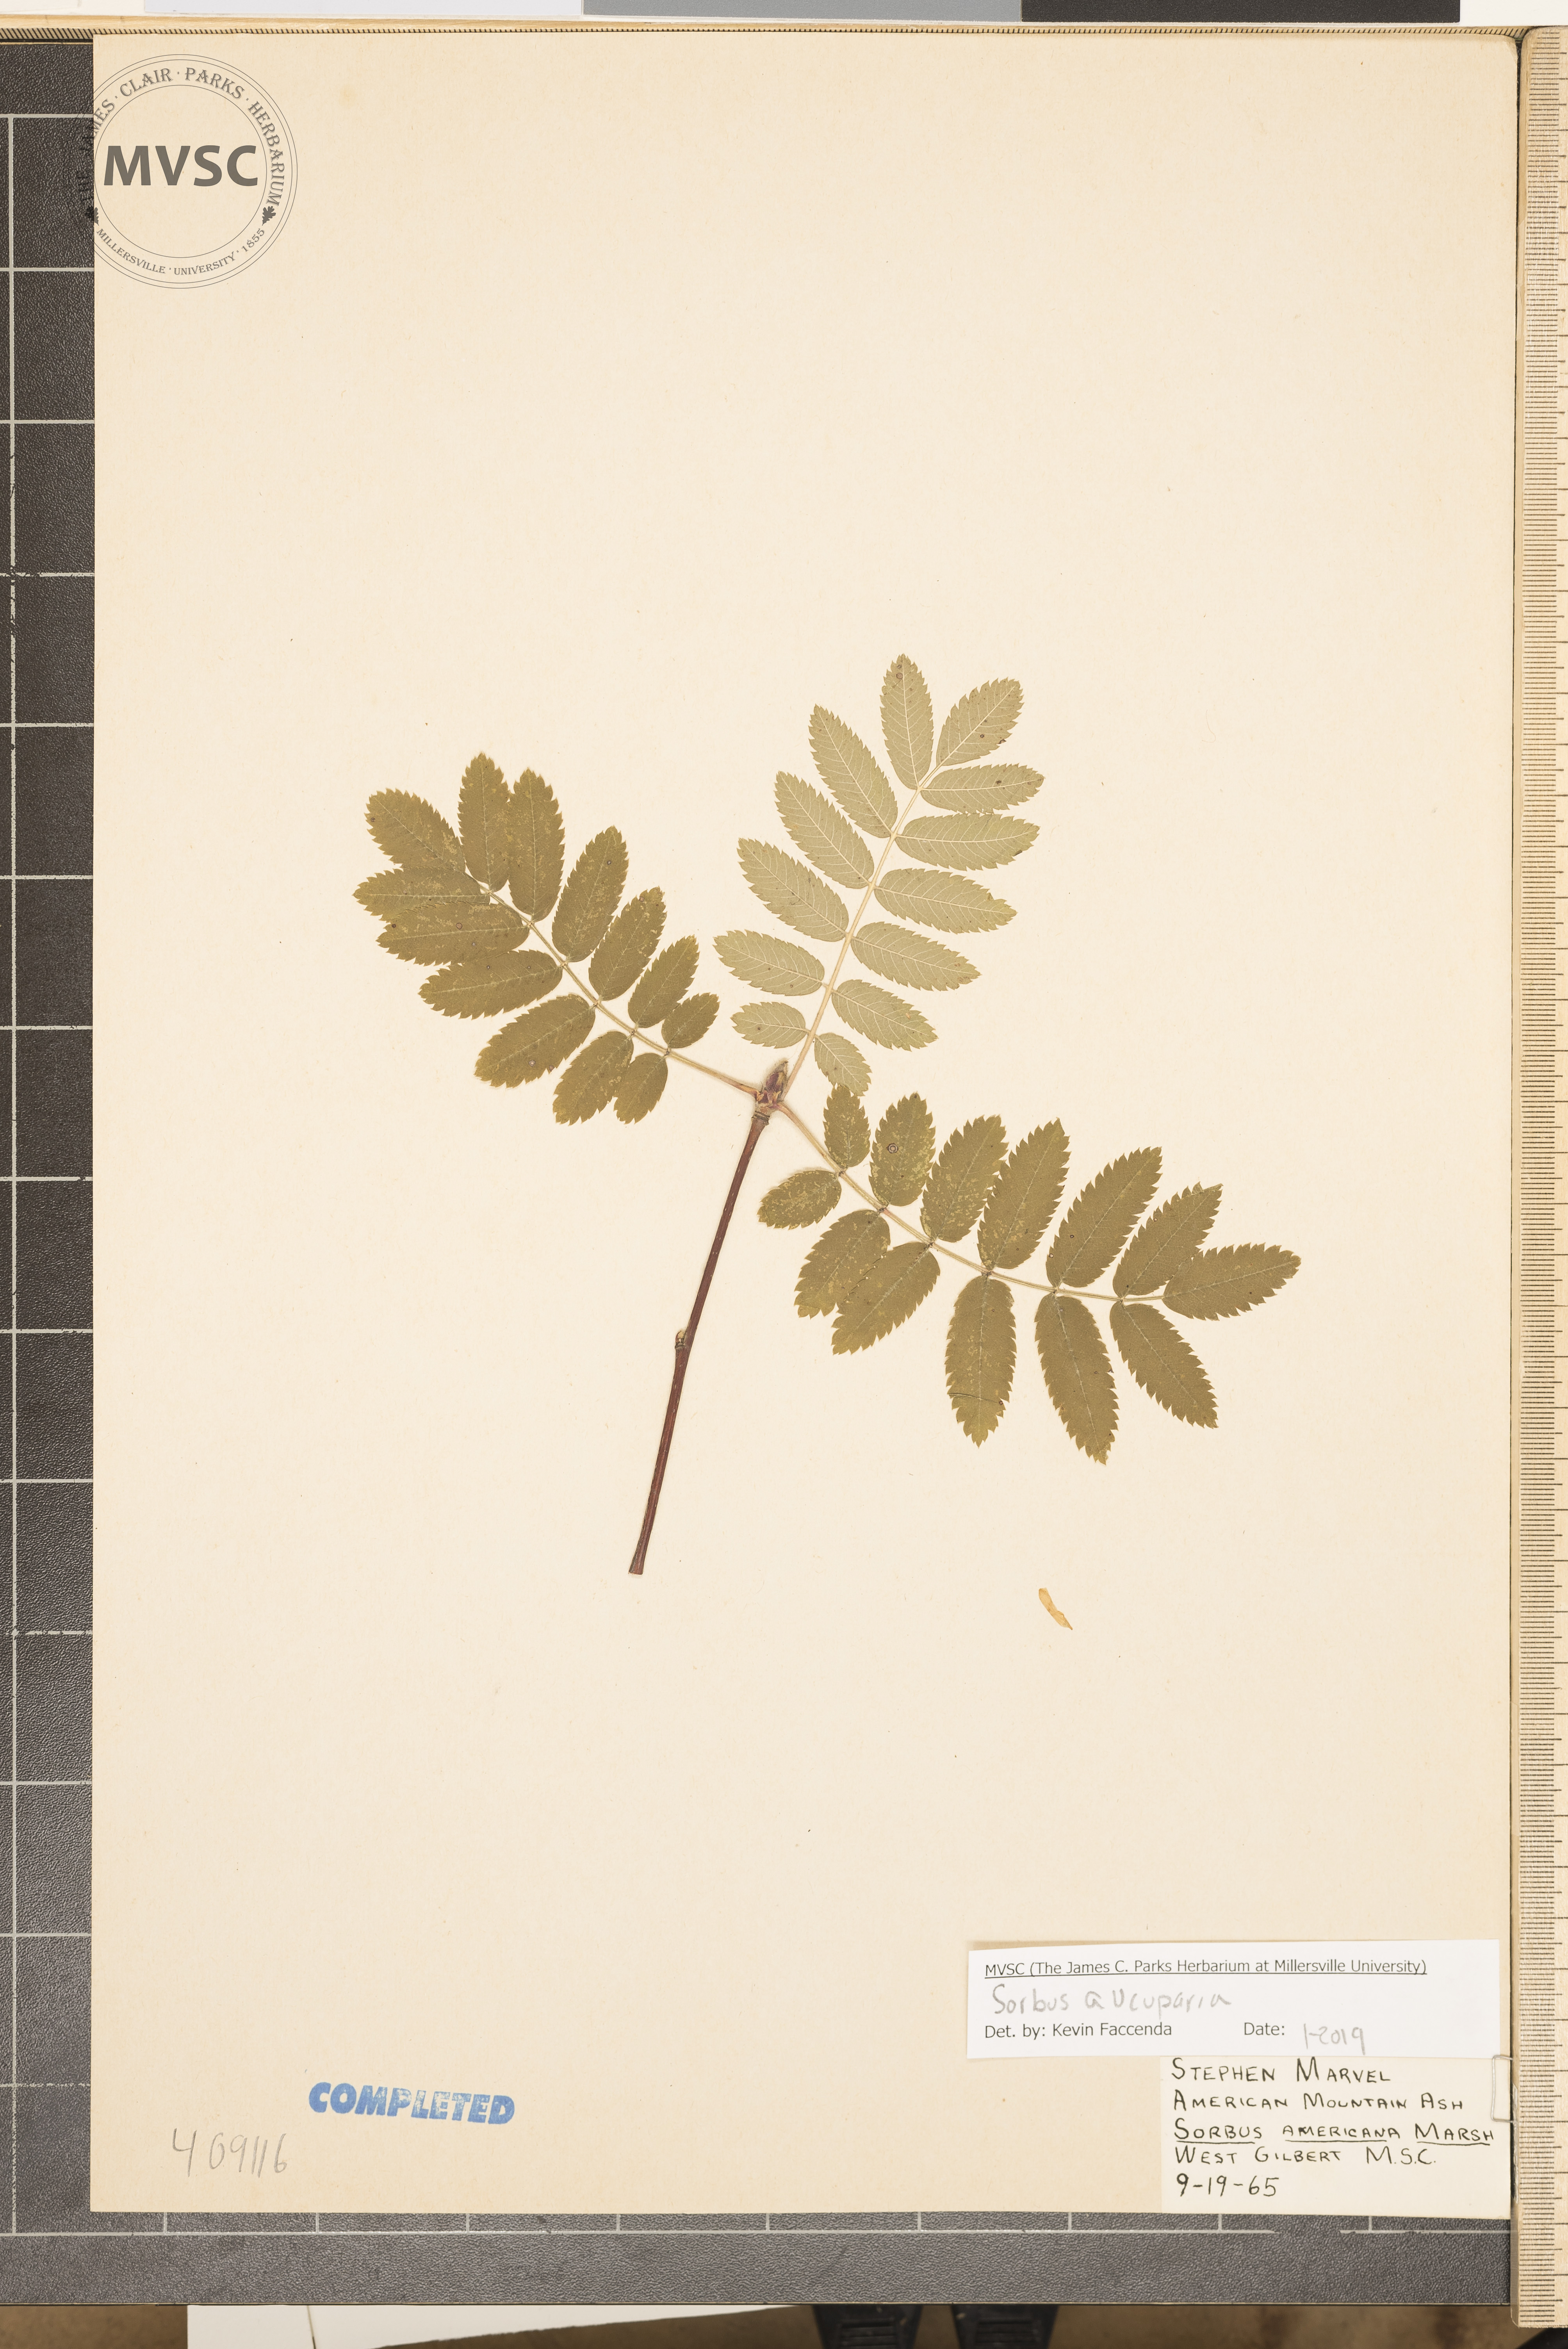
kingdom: Plantae
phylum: Tracheophyta
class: Magnoliopsida
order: Rosales
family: Rosaceae
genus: Sorbus
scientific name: Sorbus aucuparia
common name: Rowan
